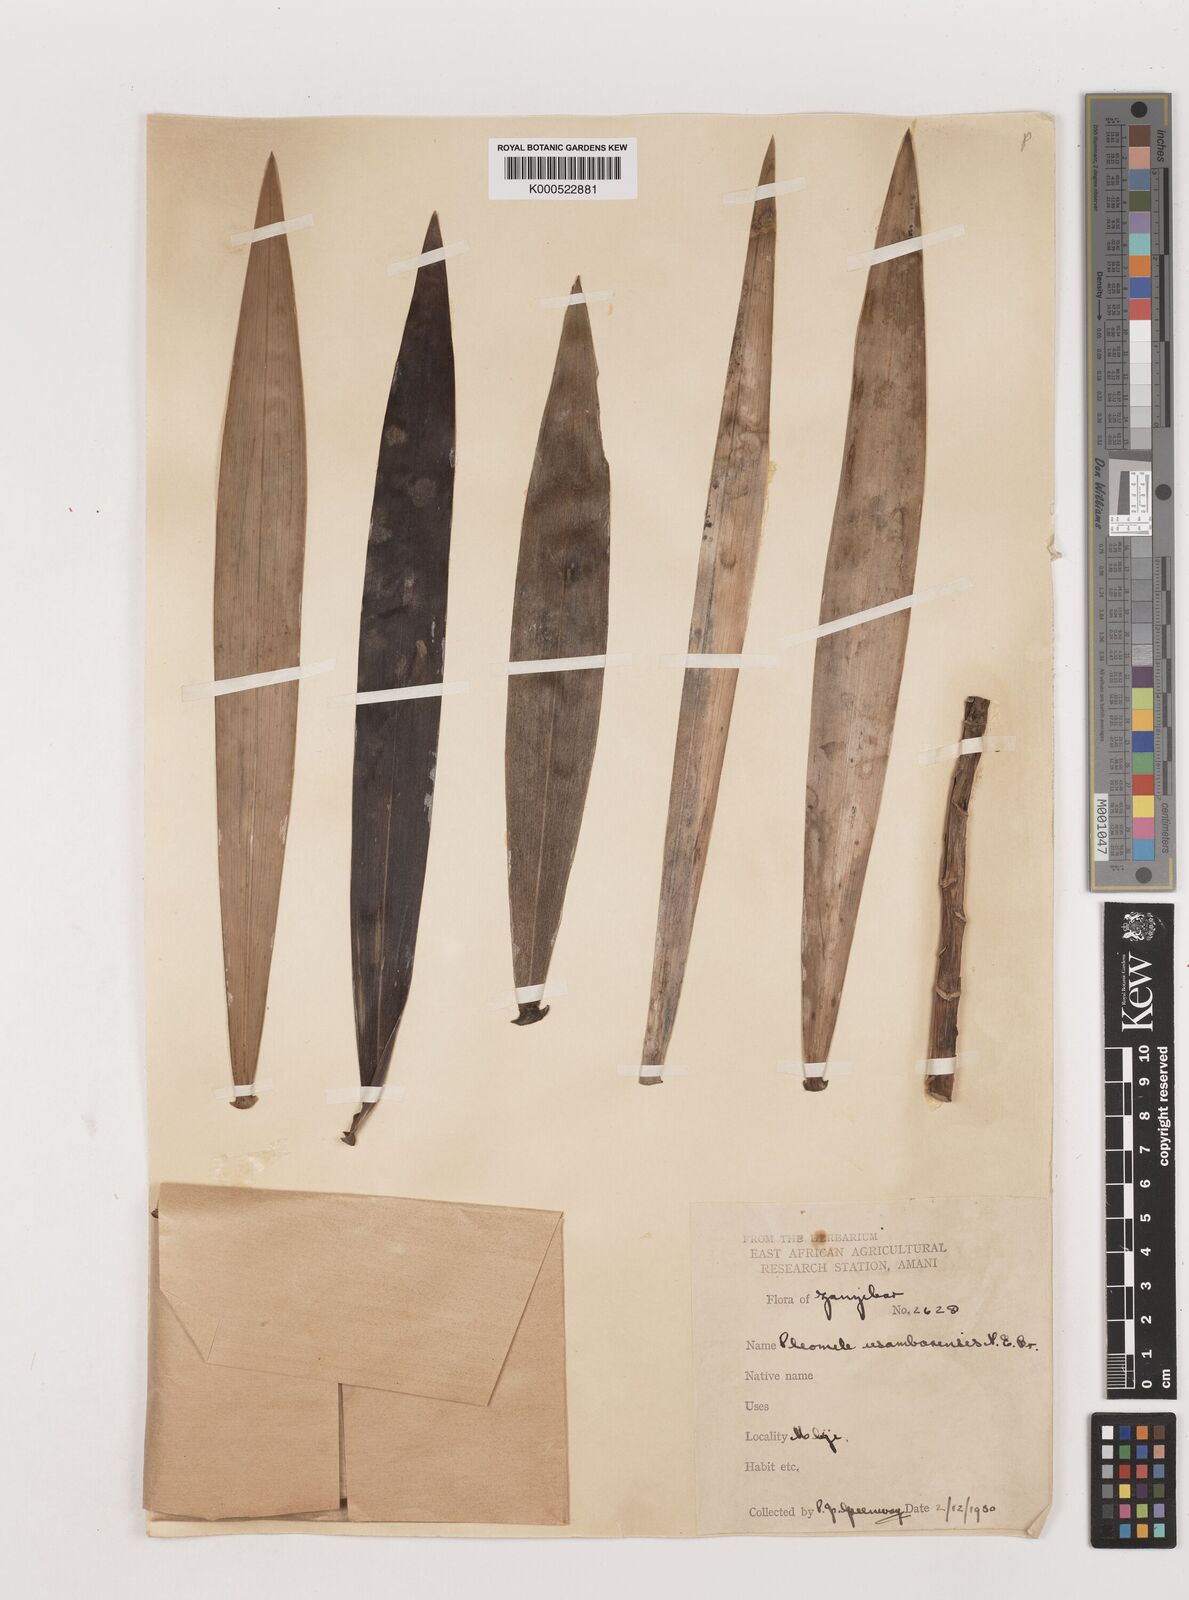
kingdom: Plantae
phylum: Tracheophyta
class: Liliopsida
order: Asparagales
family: Asparagaceae
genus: Dracaena
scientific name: Dracaena usambarensis
